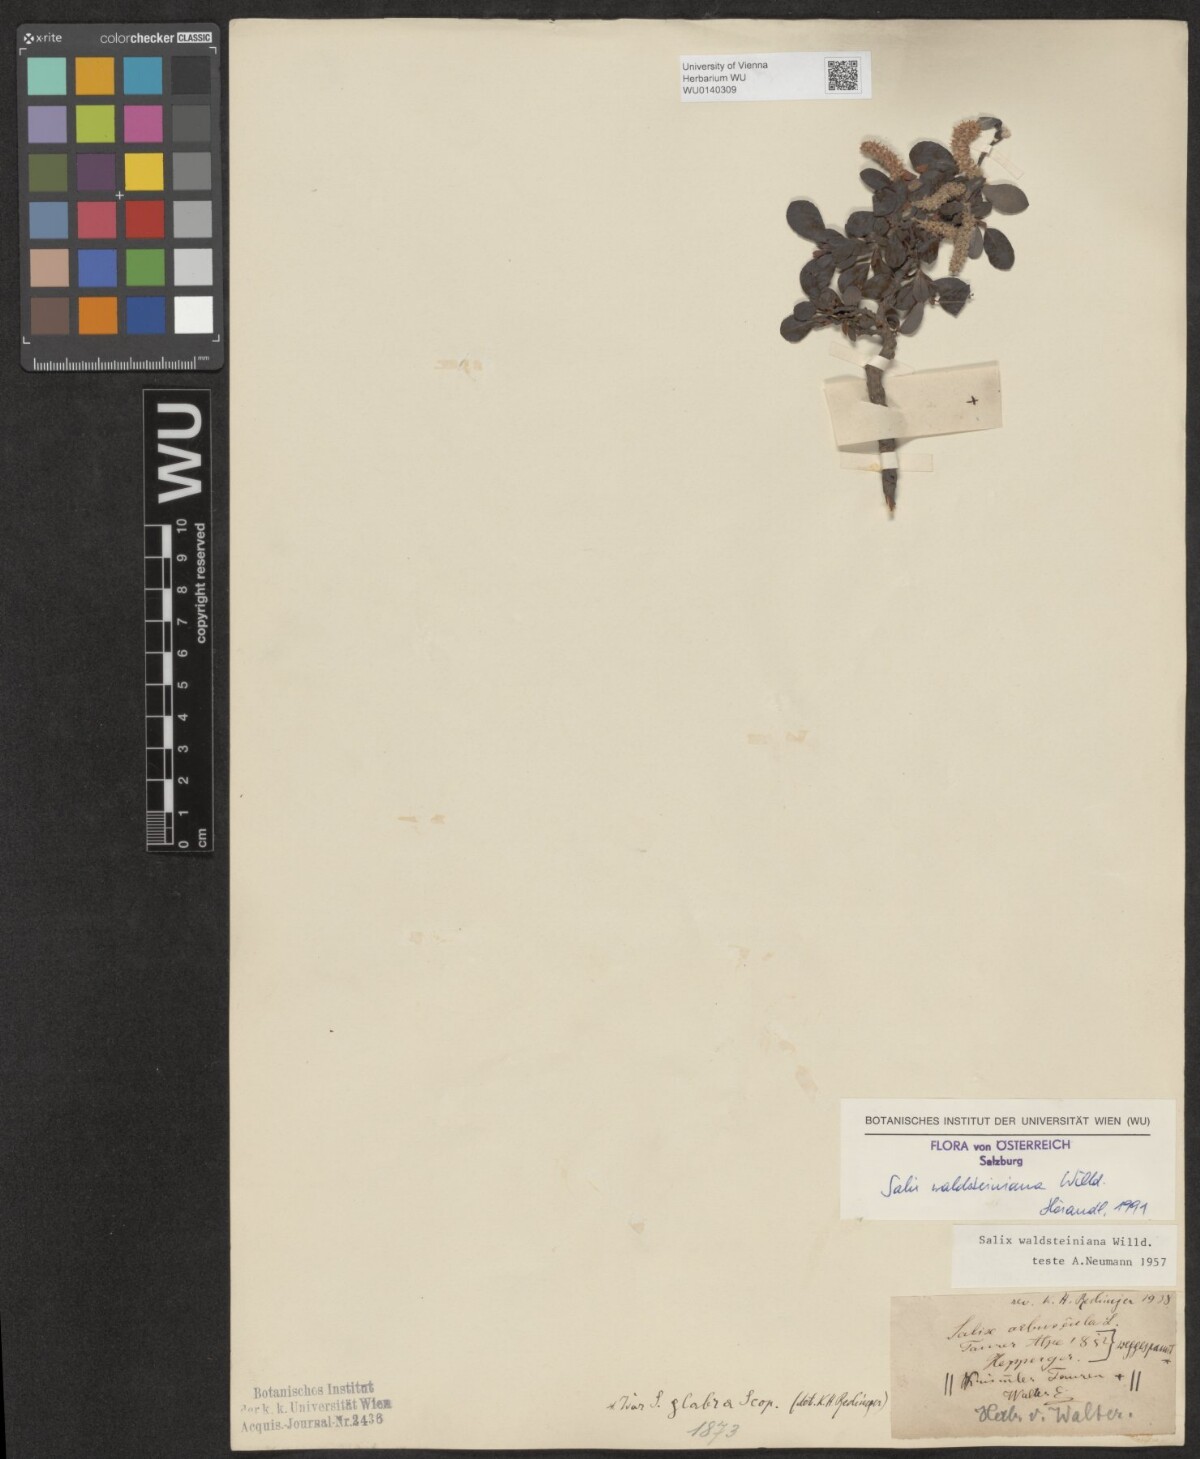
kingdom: Plantae
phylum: Tracheophyta
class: Magnoliopsida
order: Malpighiales
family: Salicaceae
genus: Salix
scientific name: Salix waldsteiniana
